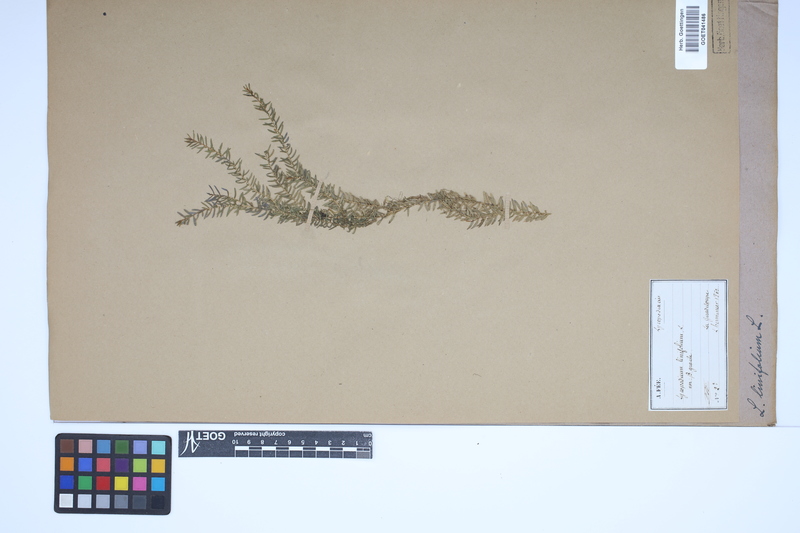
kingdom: Plantae
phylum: Tracheophyta
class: Lycopodiopsida
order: Lycopodiales
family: Lycopodiaceae
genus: Phlegmariurus
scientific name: Phlegmariurus linifolius
